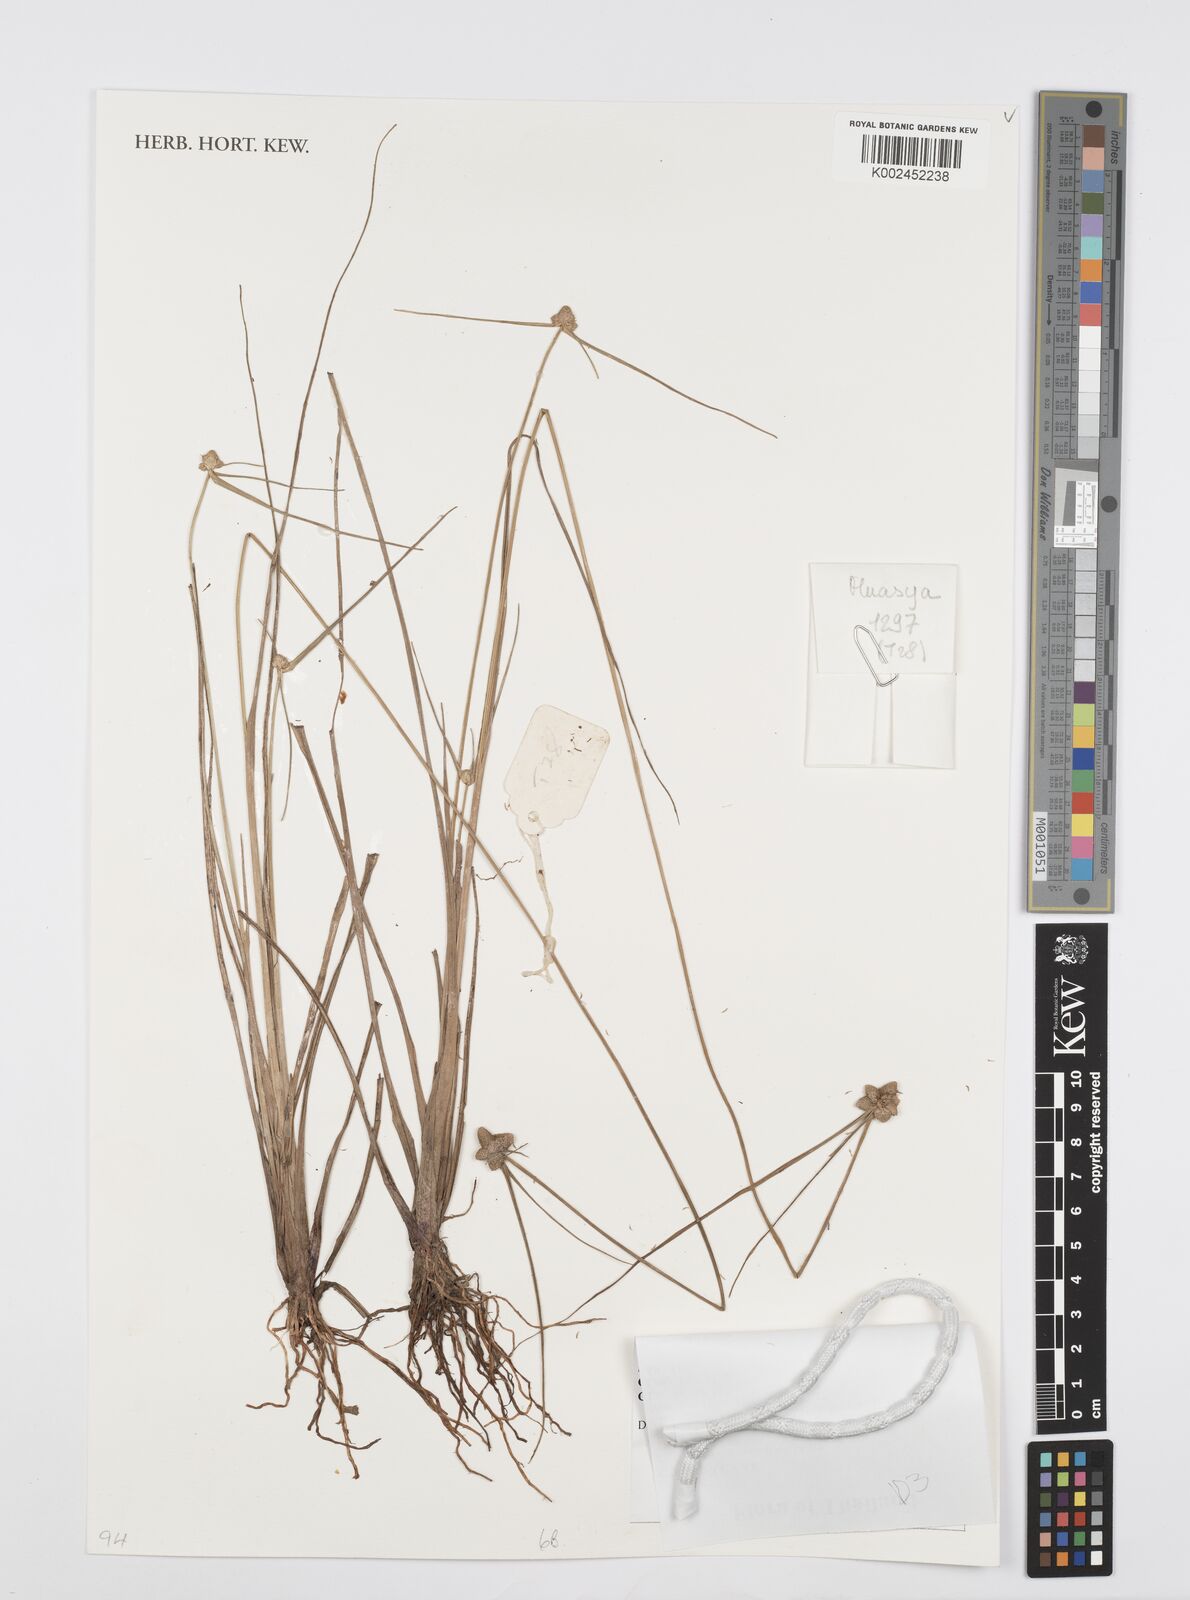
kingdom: Plantae
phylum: Tracheophyta
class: Liliopsida
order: Poales
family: Cyperaceae
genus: Cyperus
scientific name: Cyperus albescens
